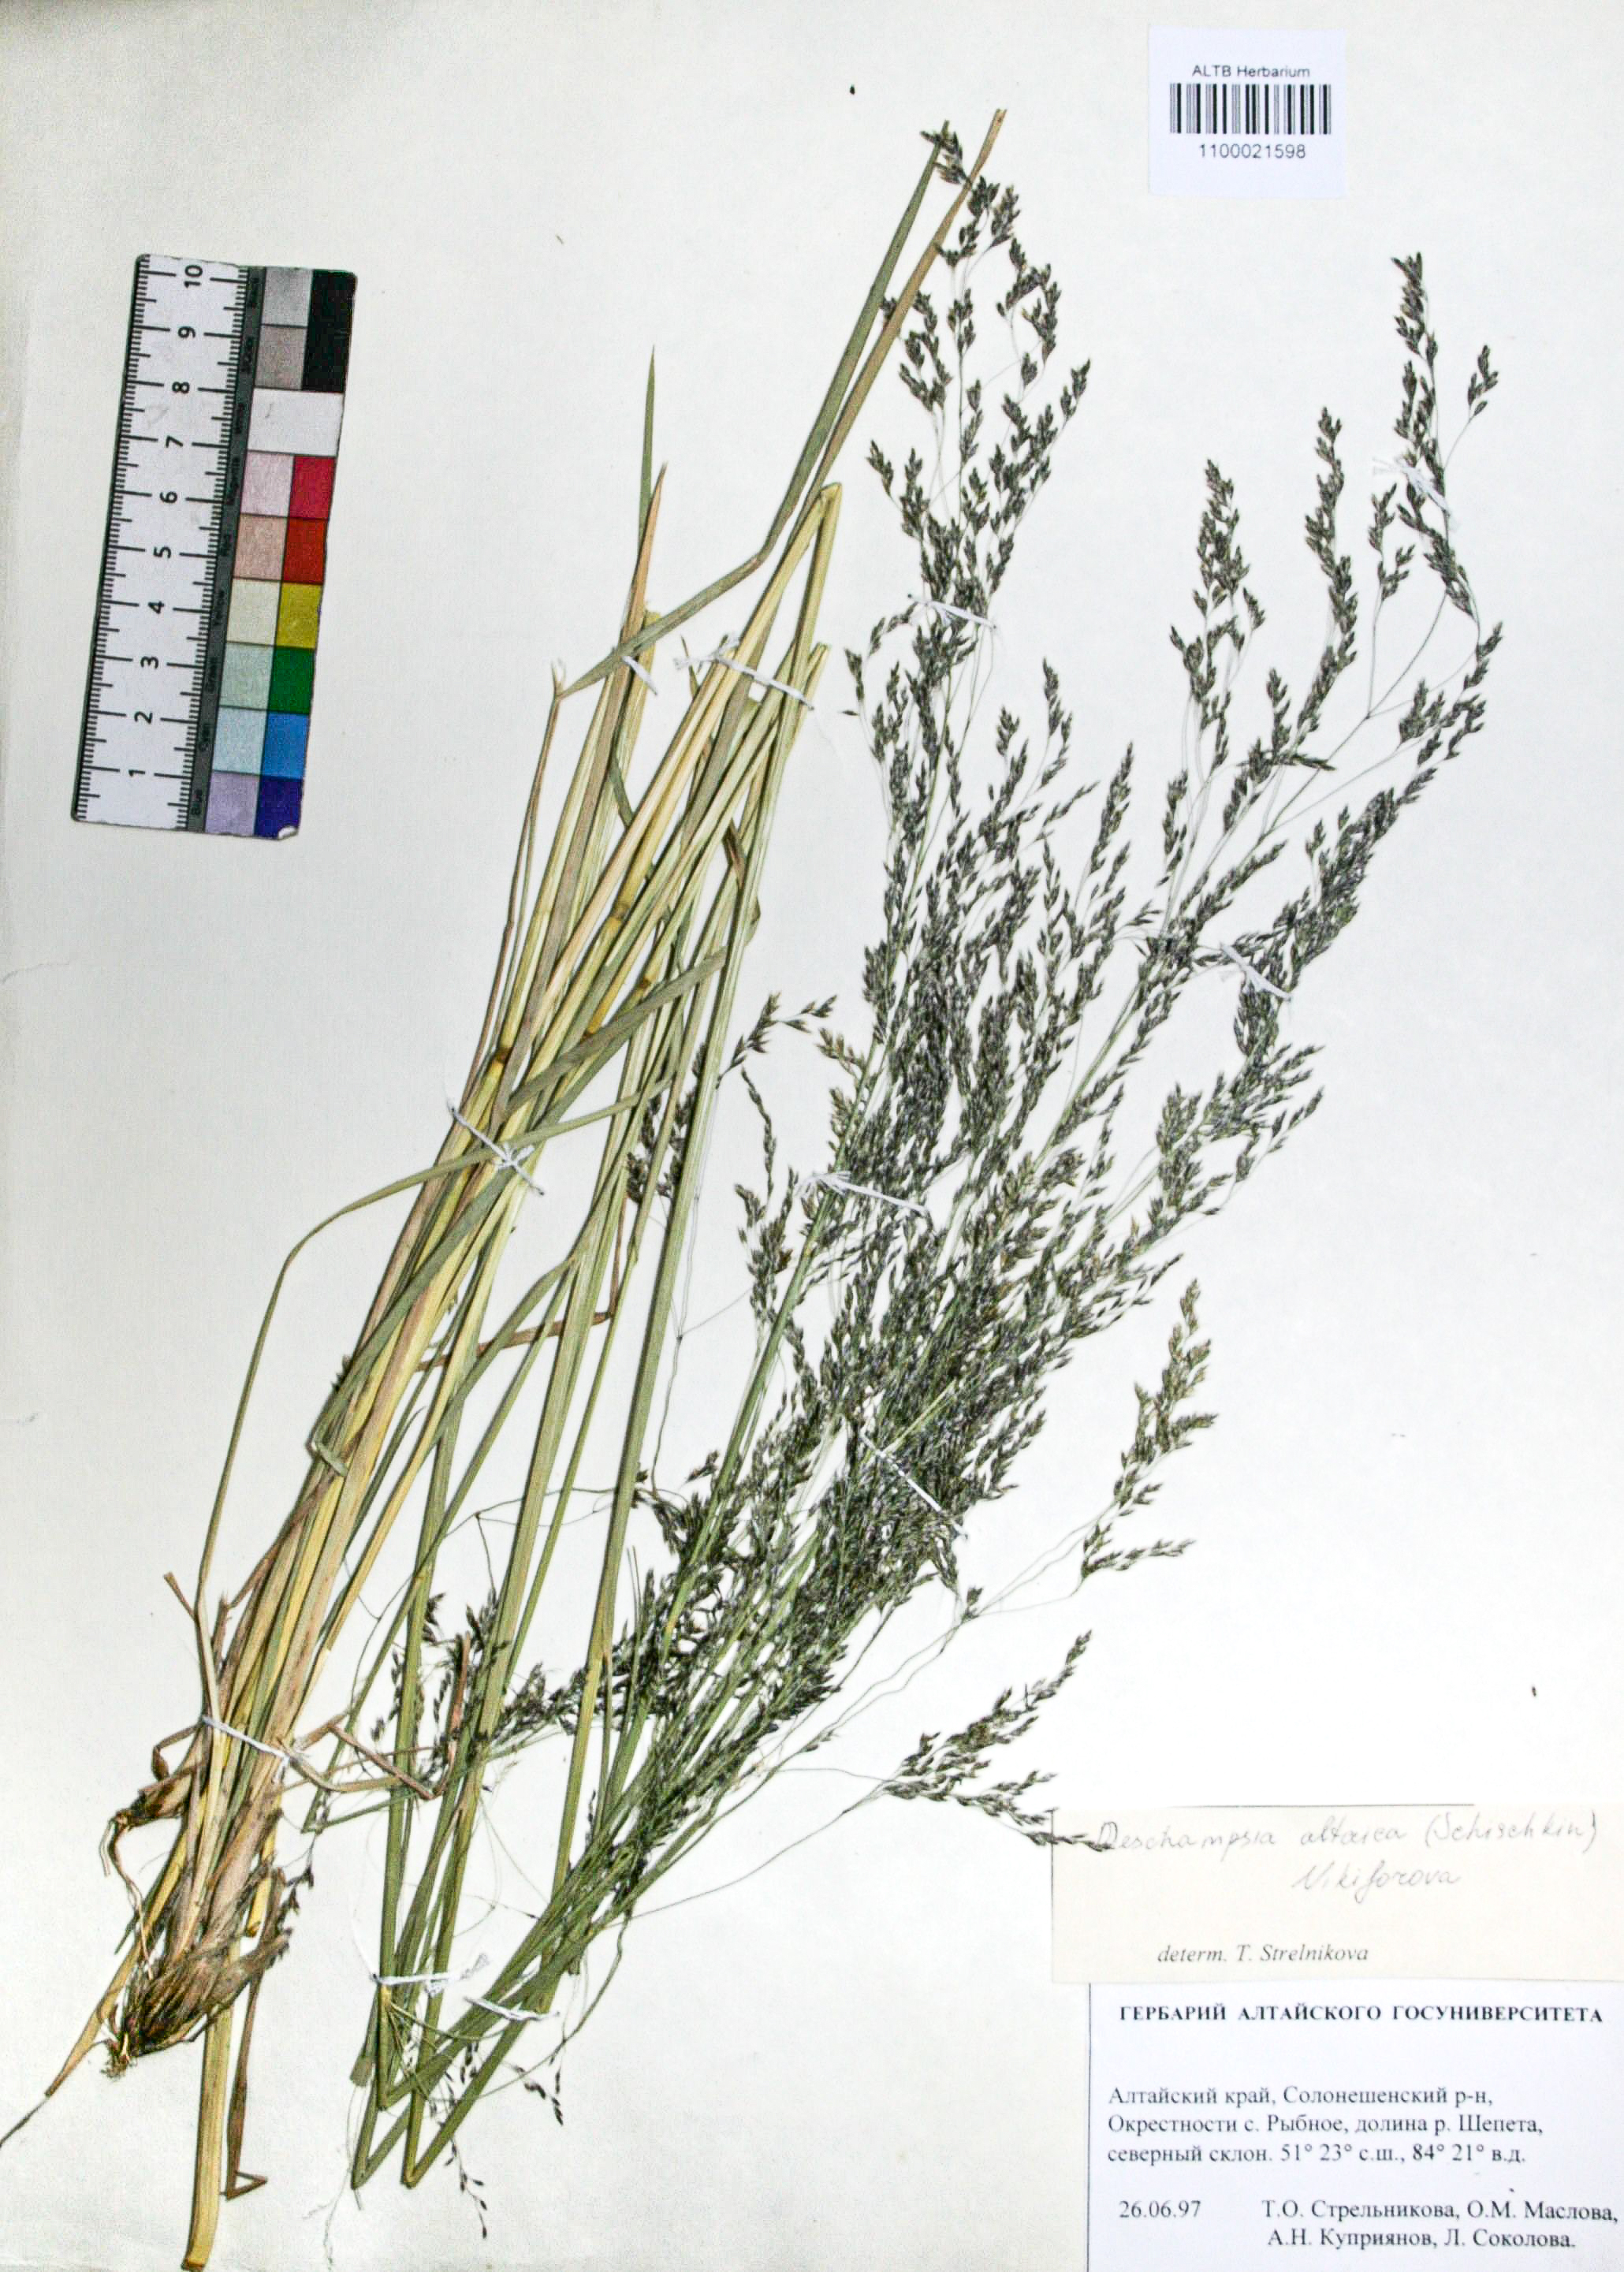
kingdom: Plantae
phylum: Tracheophyta
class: Liliopsida
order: Poales
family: Poaceae
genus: Deschampsia
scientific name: Deschampsia cespitosa
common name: Tufted hair-grass
